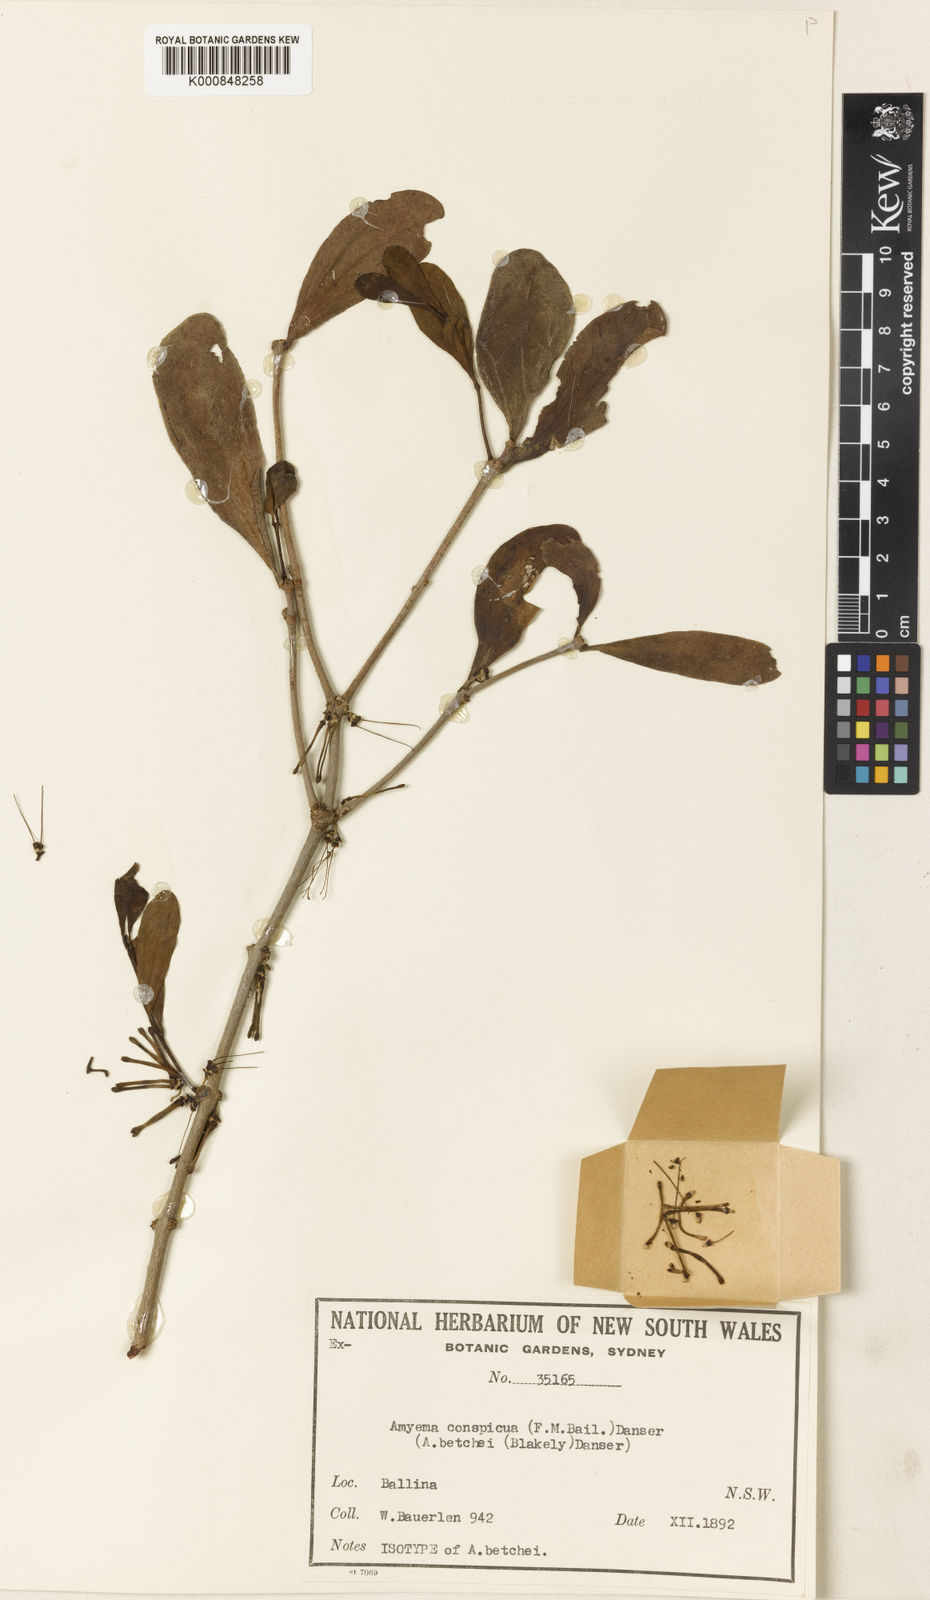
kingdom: Plantae
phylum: Tracheophyta
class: Magnoliopsida
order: Santalales
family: Loranthaceae
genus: Amyema
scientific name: Amyema conspicua
